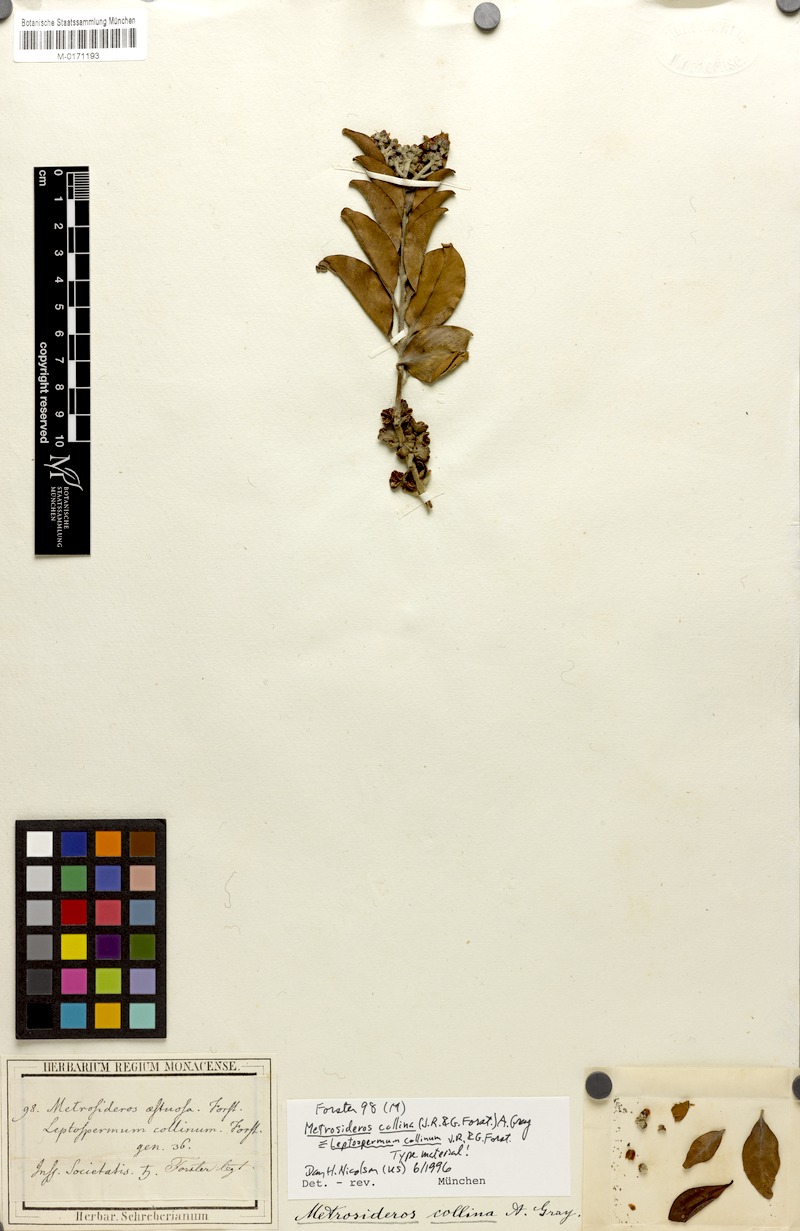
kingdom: Plantae
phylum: Tracheophyta
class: Magnoliopsida
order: Myrtales
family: Myrtaceae
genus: Metrosideros
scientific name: Metrosideros collina
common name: Vunga
